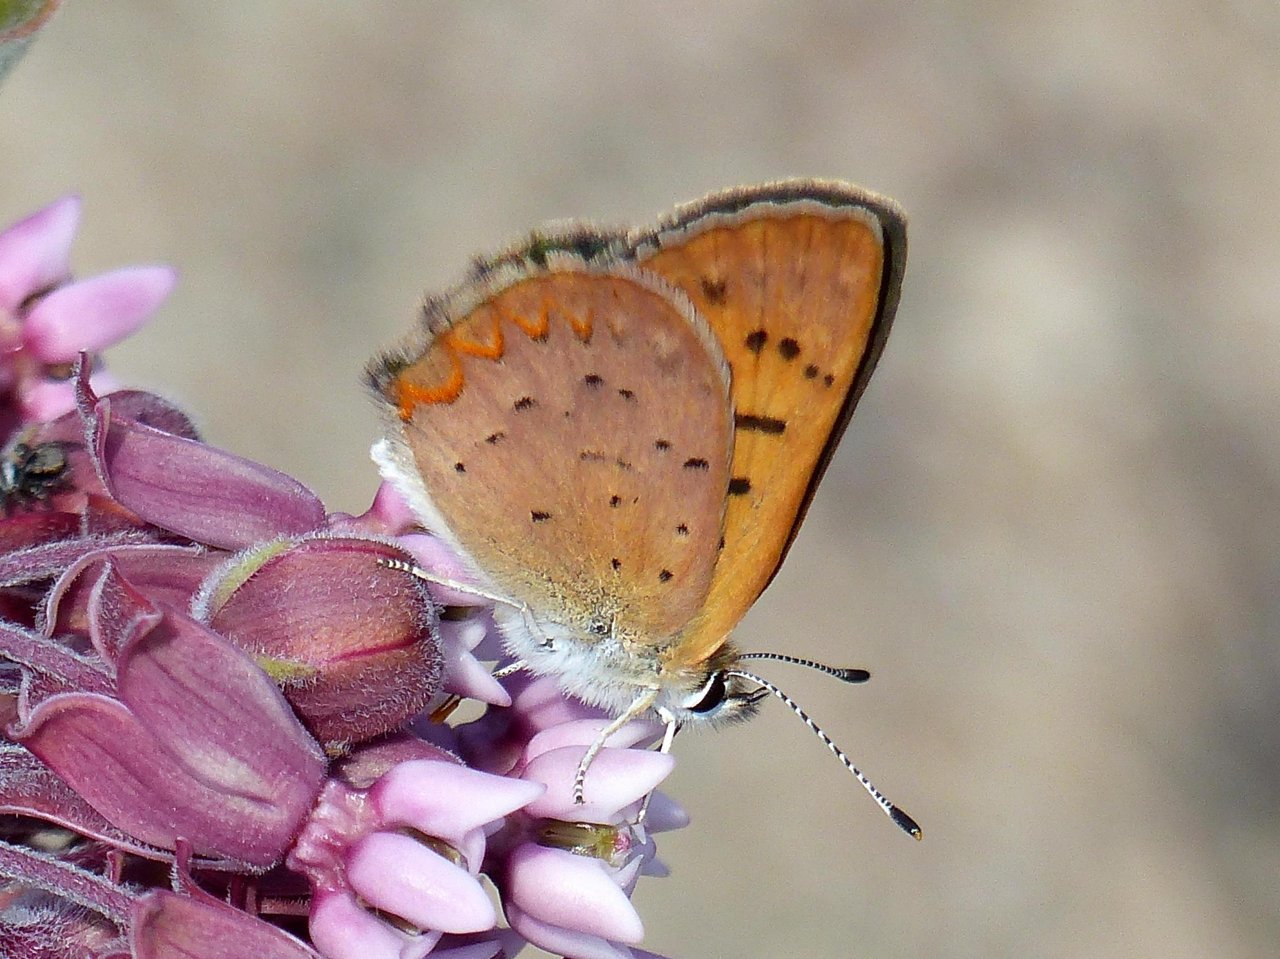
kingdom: Animalia
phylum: Arthropoda
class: Insecta
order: Lepidoptera
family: Lycaenidae
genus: Epidemia
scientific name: Epidemia dorcas
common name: Dorcas Copper
